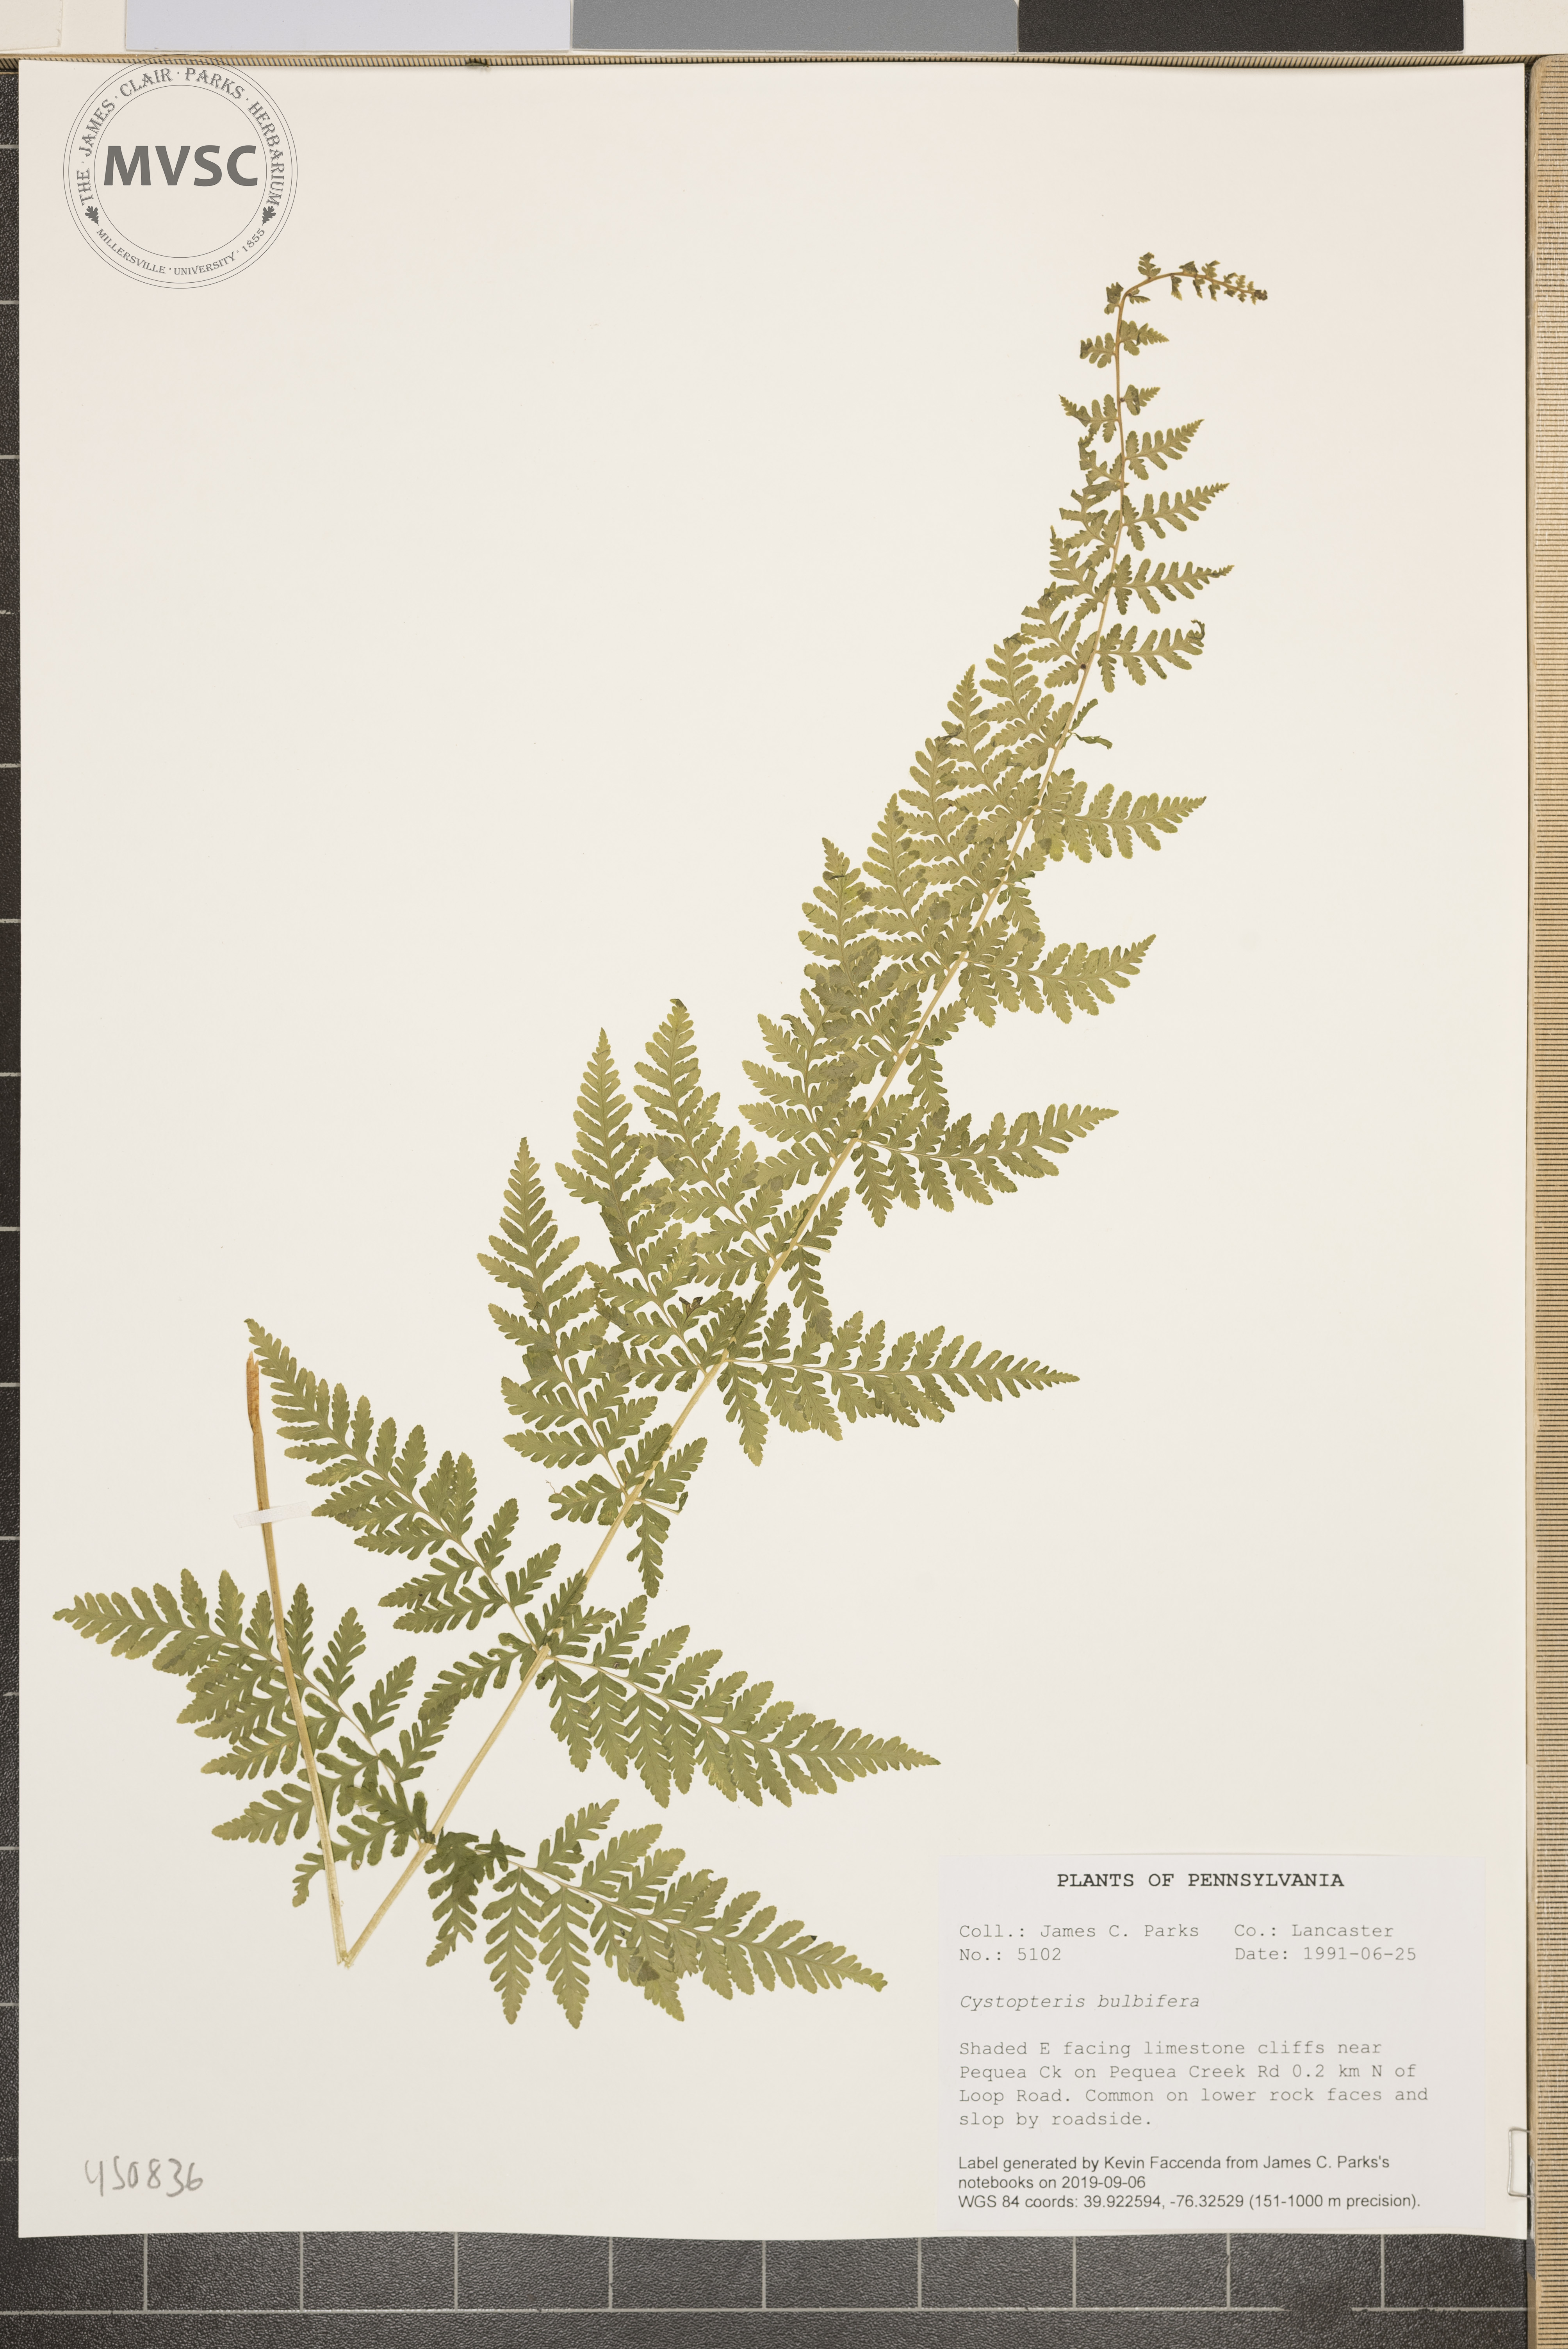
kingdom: Plantae
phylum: Tracheophyta
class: Polypodiopsida
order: Polypodiales
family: Cystopteridaceae
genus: Cystopteris
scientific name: Cystopteris bulbifera
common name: Bulblet bladder fern
